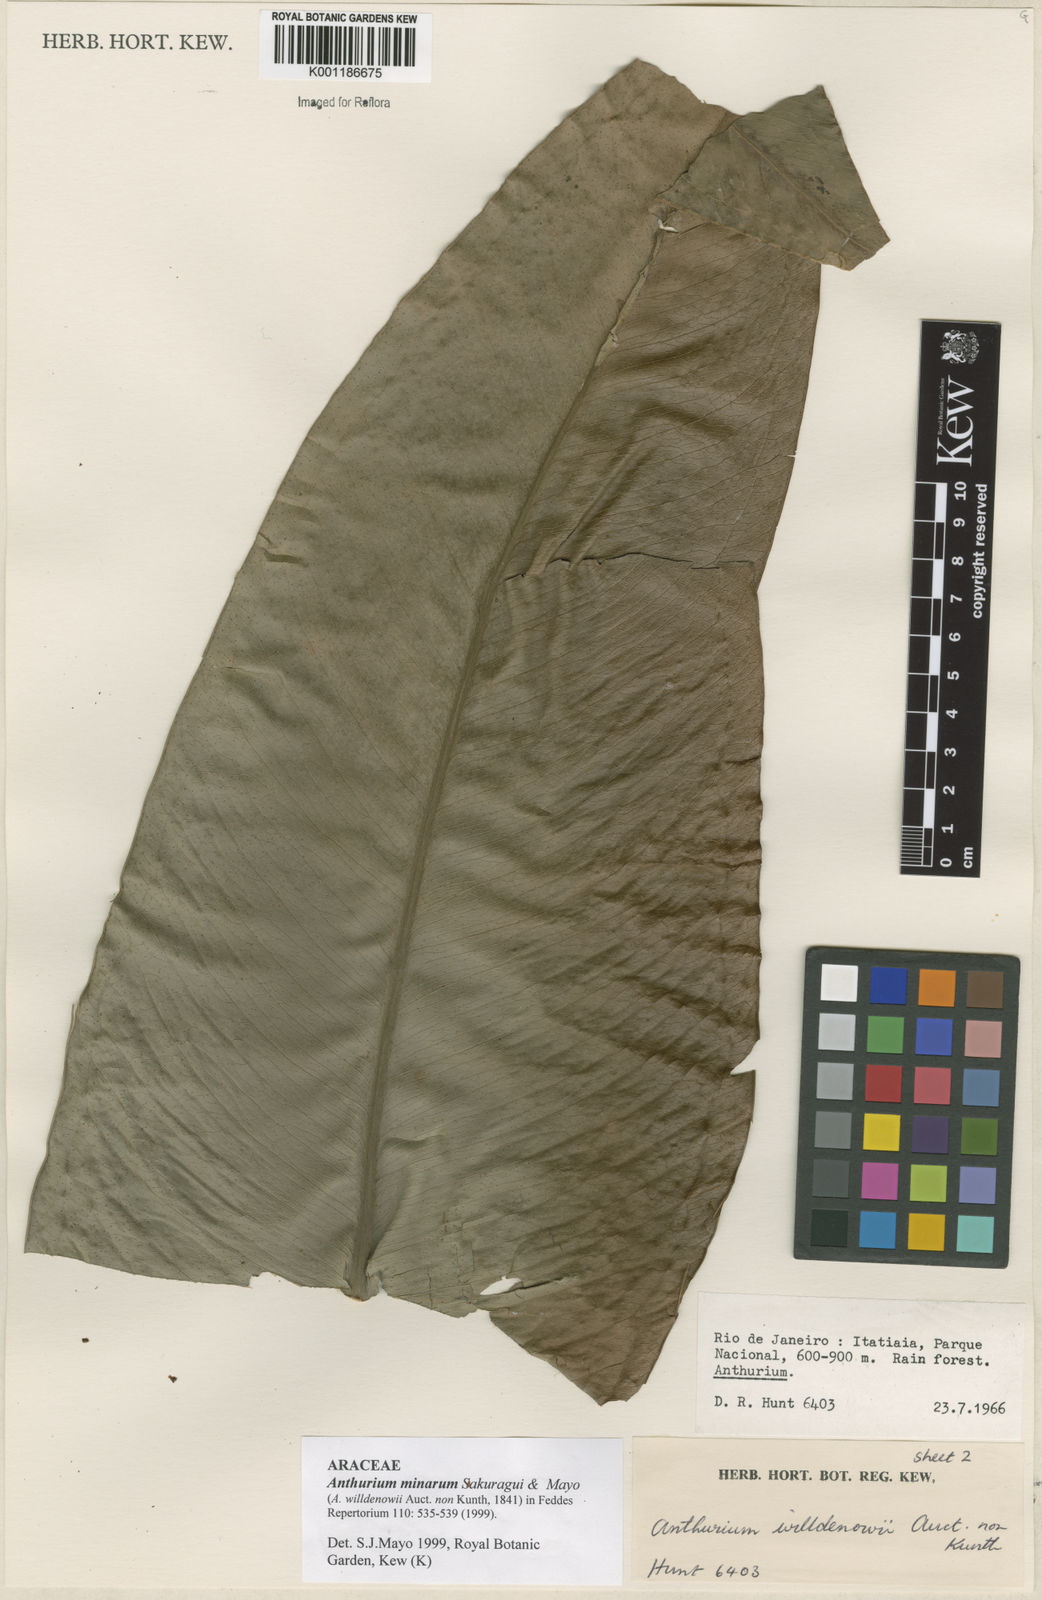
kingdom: Plantae
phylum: Tracheophyta
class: Liliopsida
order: Alismatales
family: Araceae
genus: Anthurium
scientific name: Anthurium minarum
